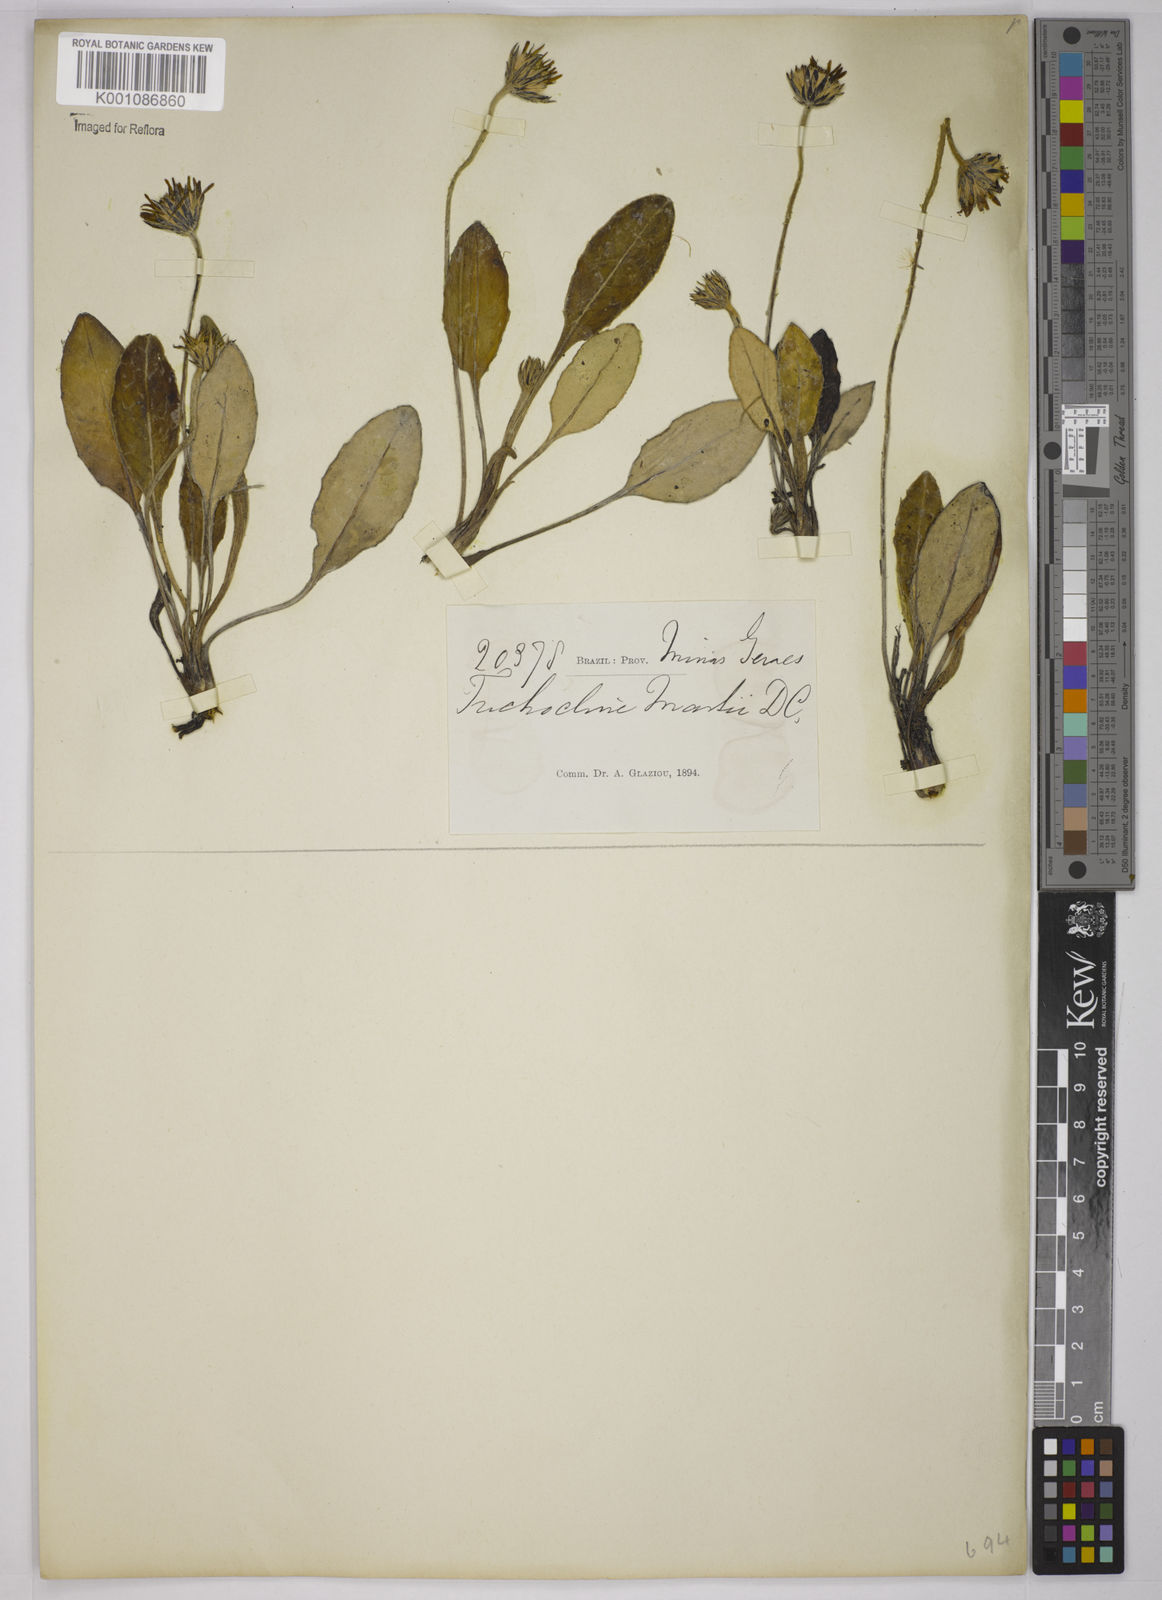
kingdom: Plantae
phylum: Tracheophyta
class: Magnoliopsida
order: Asterales
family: Asteraceae
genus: Chaptalia
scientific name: Chaptalia martii
